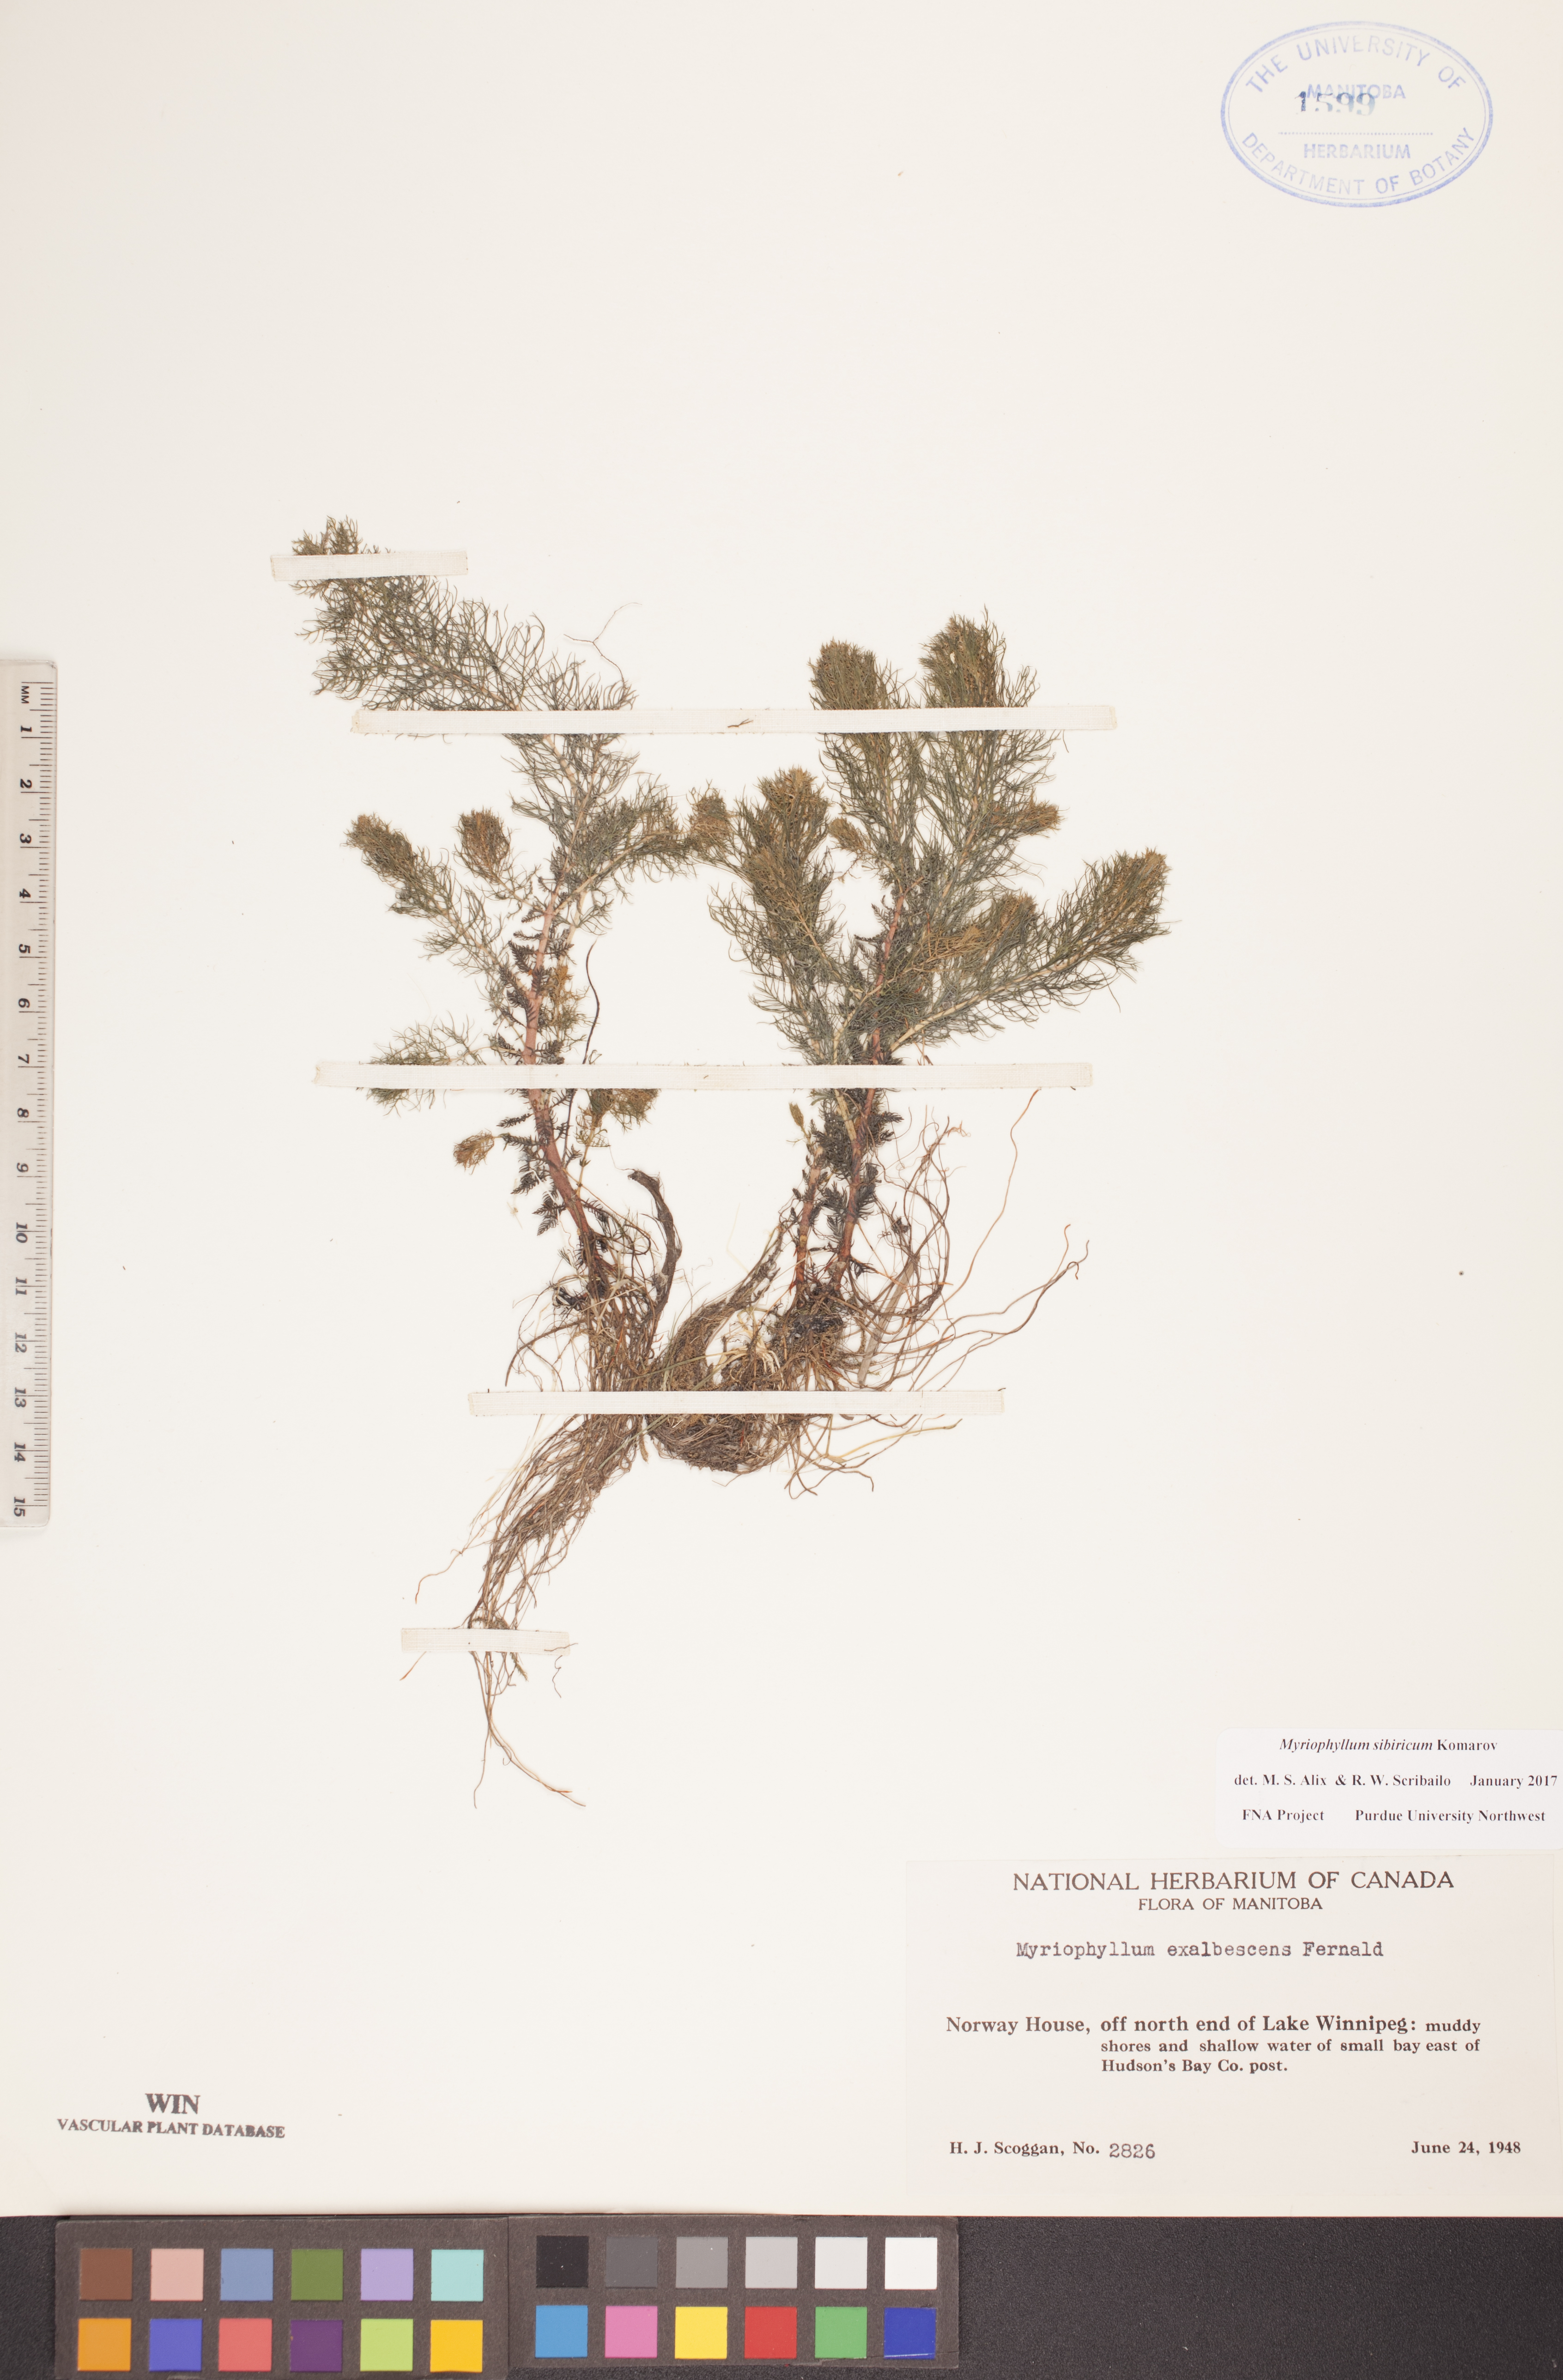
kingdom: Plantae
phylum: Tracheophyta
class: Magnoliopsida
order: Saxifragales
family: Haloragaceae
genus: Myriophyllum
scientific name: Myriophyllum sibiricum
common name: Siberian water-milfoil
